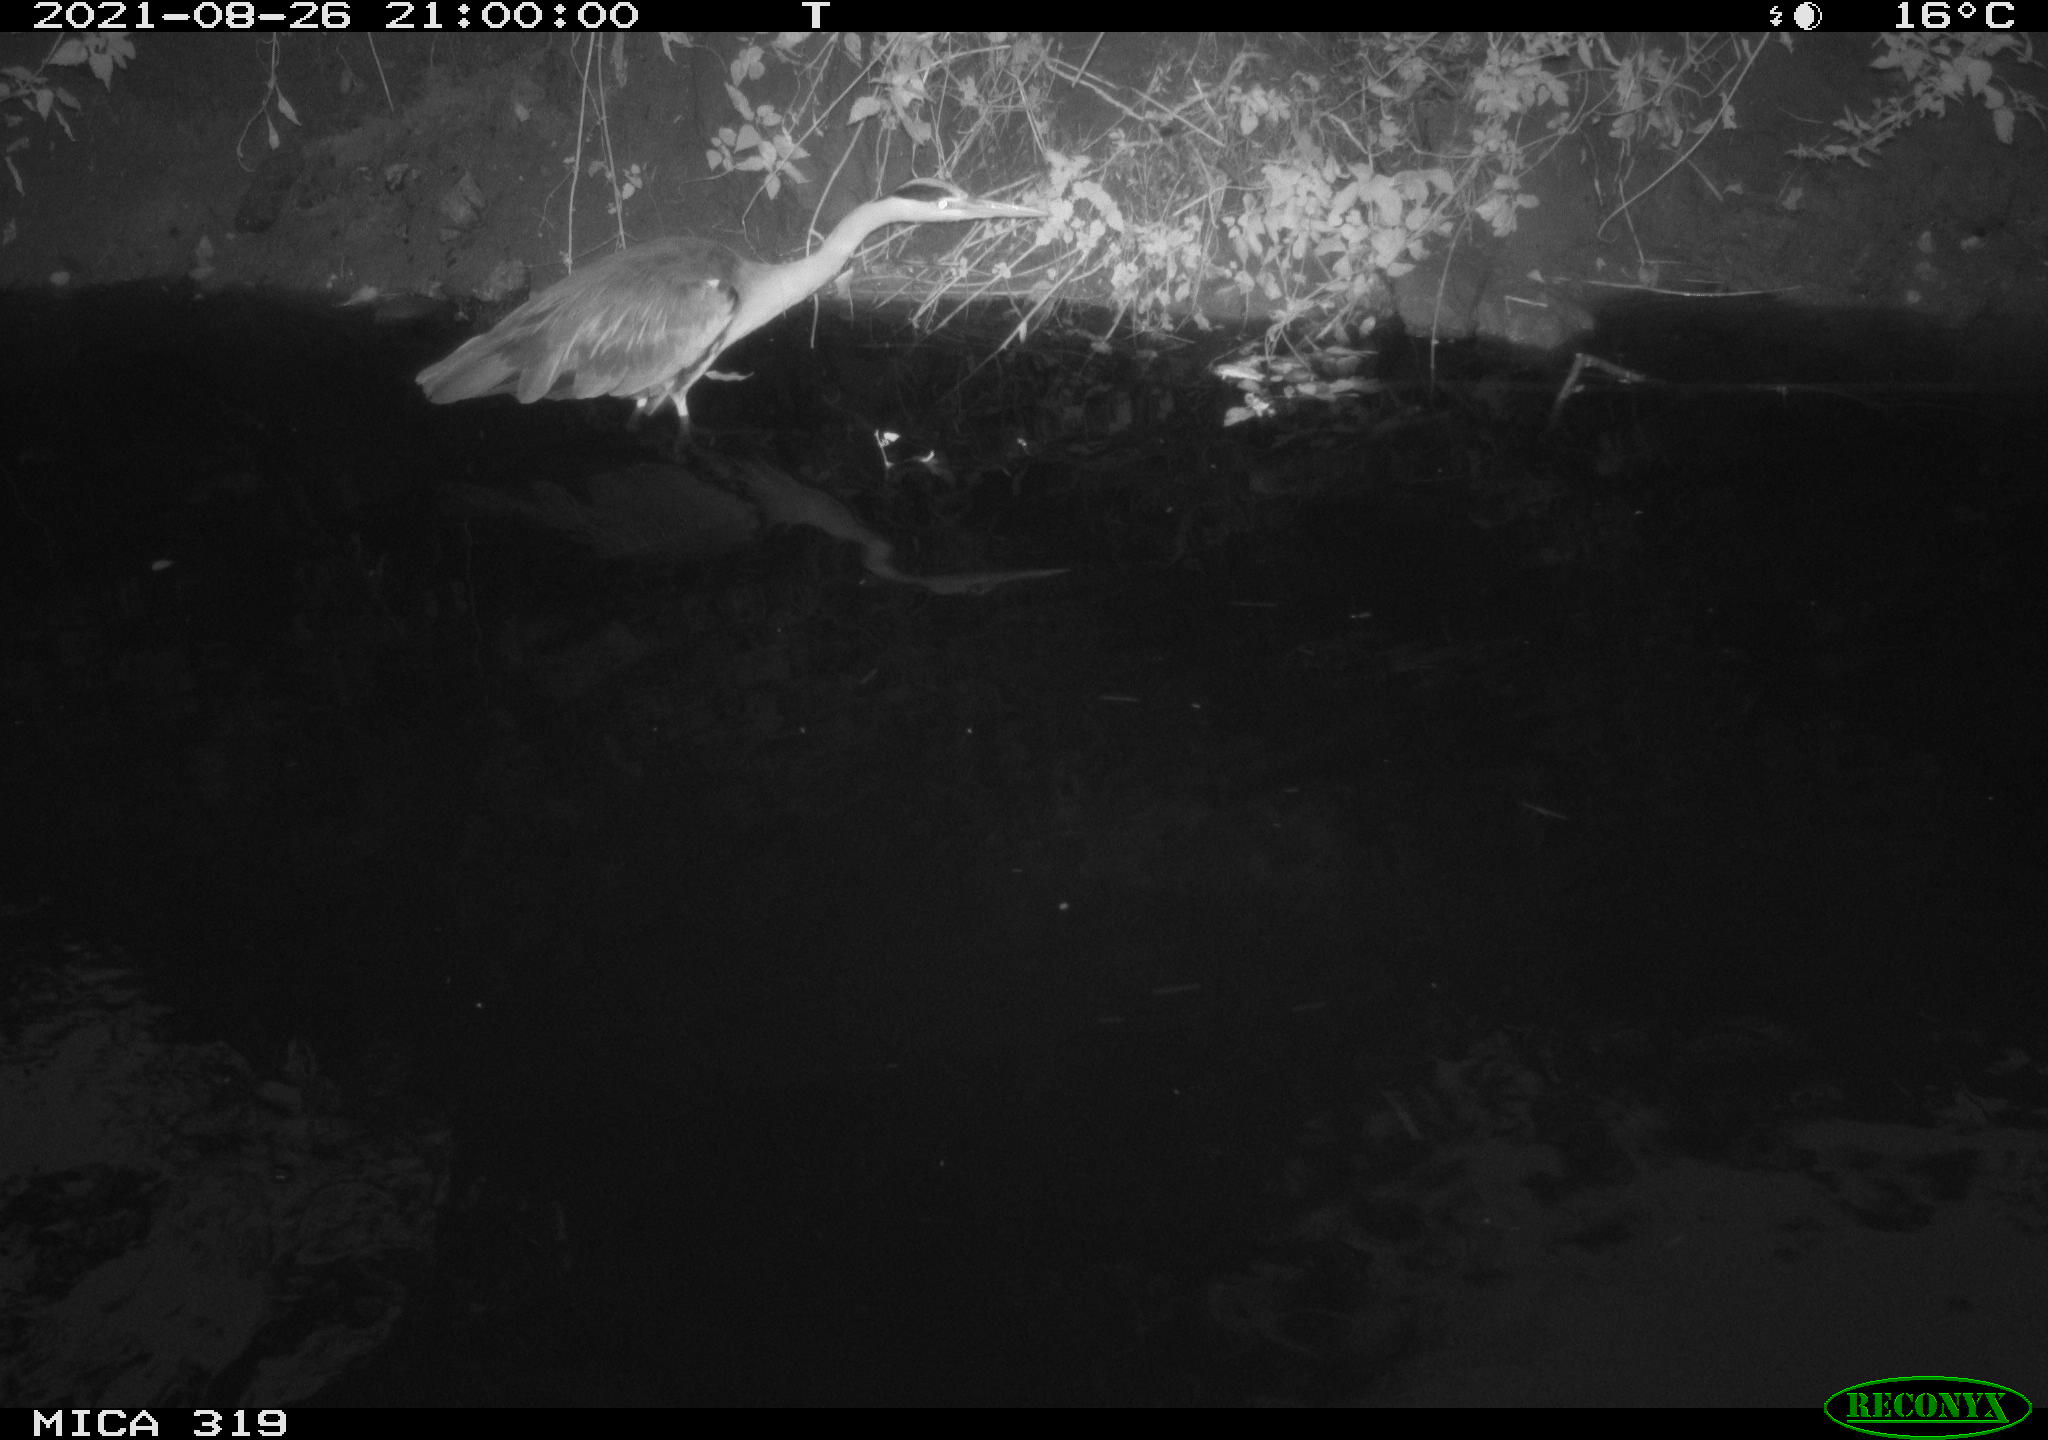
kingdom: Animalia
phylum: Chordata
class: Aves
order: Pelecaniformes
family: Ardeidae
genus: Ardea
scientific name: Ardea cinerea
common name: Grey heron
